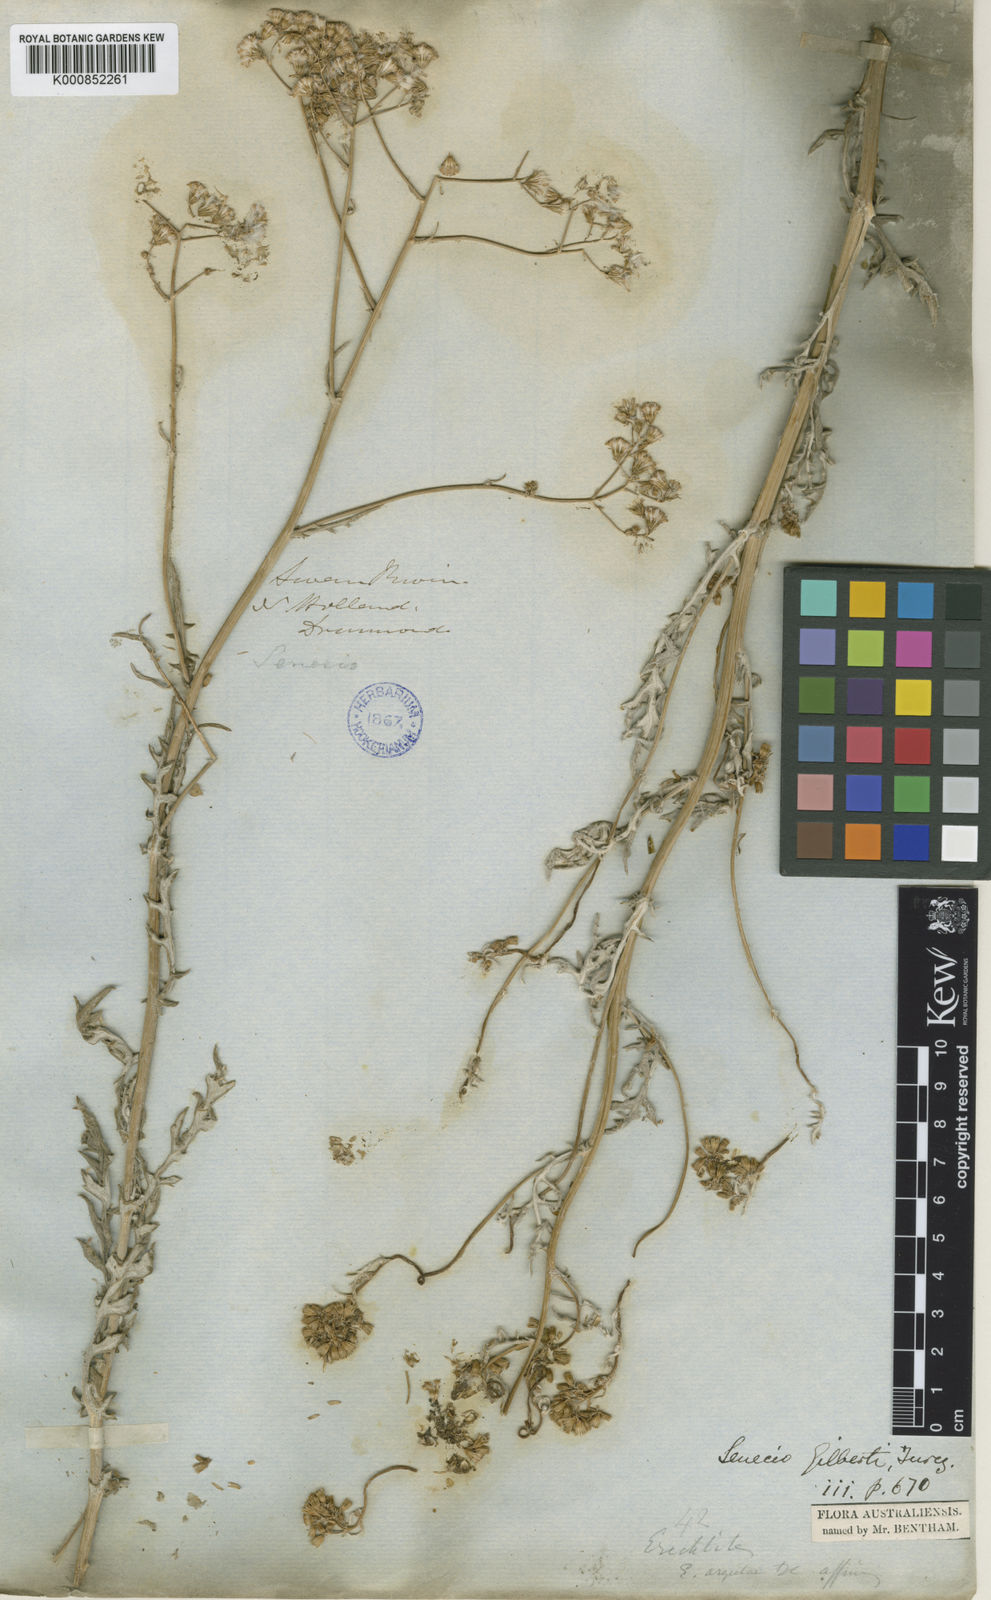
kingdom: Plantae
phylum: Tracheophyta
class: Magnoliopsida
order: Asterales
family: Asteraceae
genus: Senecio
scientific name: Senecio gilbertii
